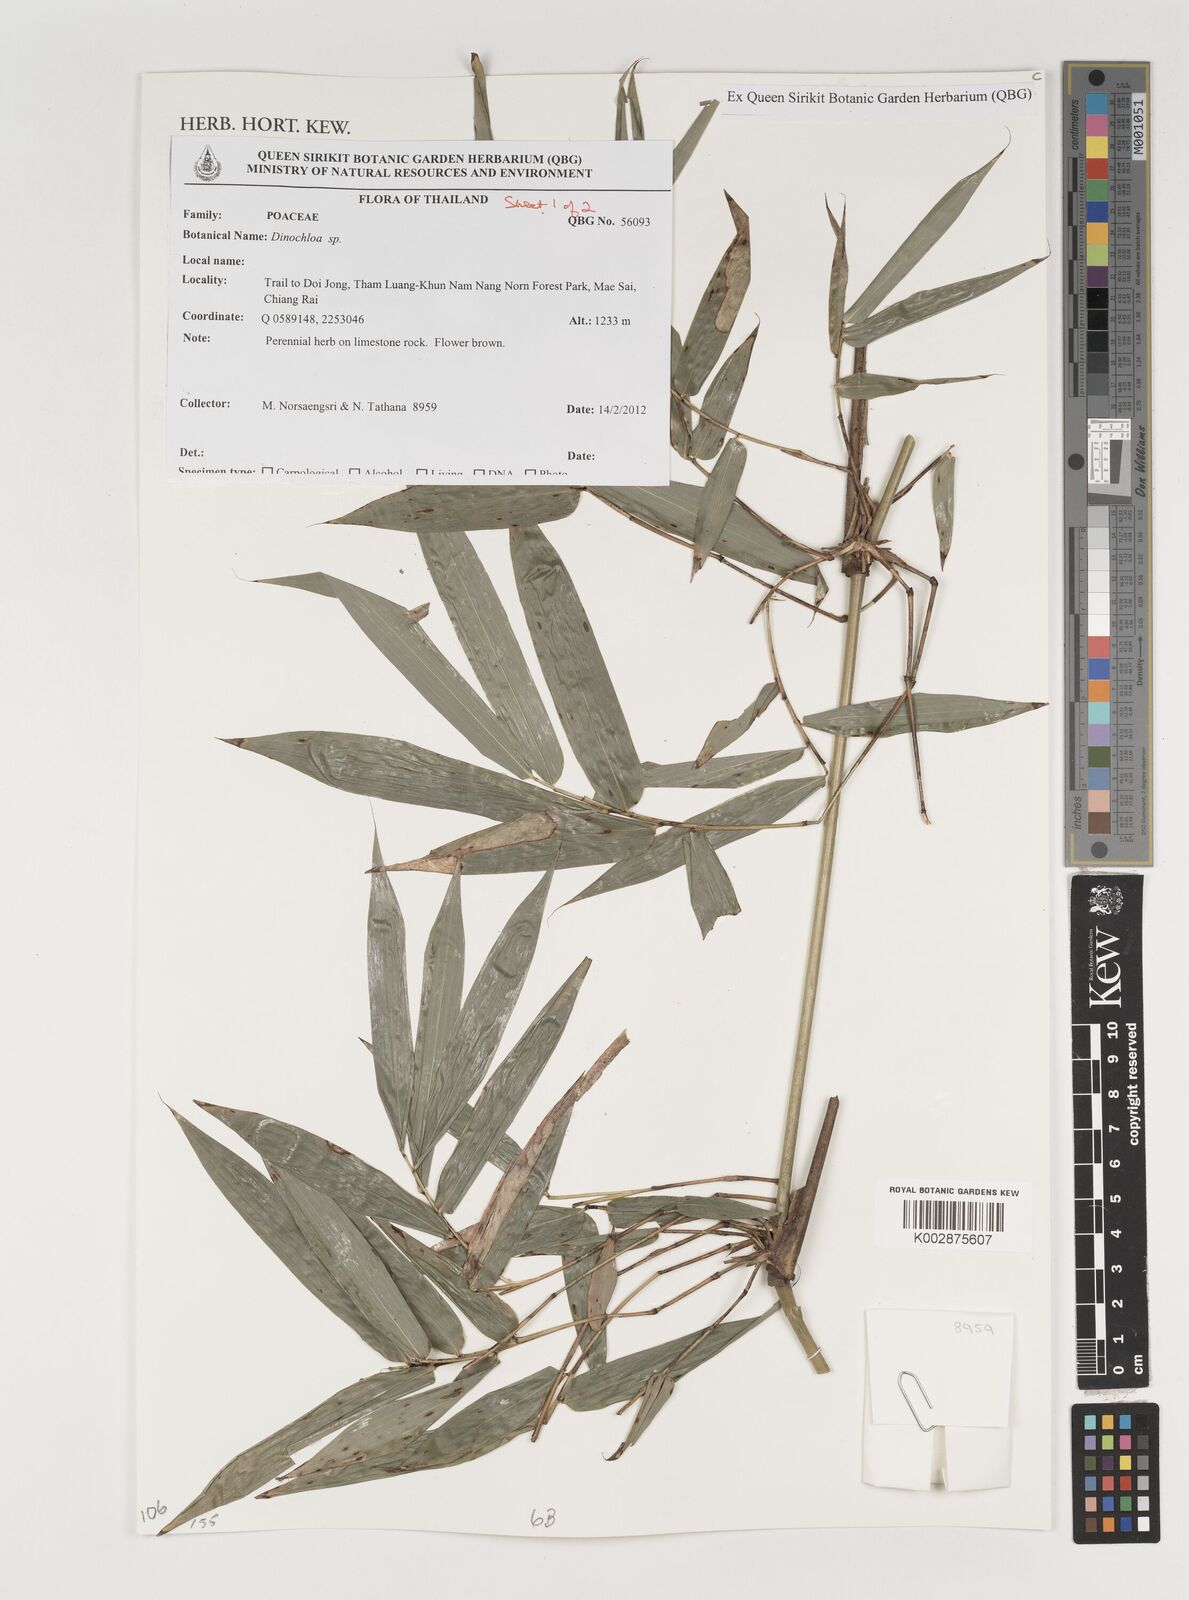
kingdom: Plantae
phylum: Tracheophyta
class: Liliopsida
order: Poales
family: Poaceae
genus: Dinochloa
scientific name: Dinochloa
